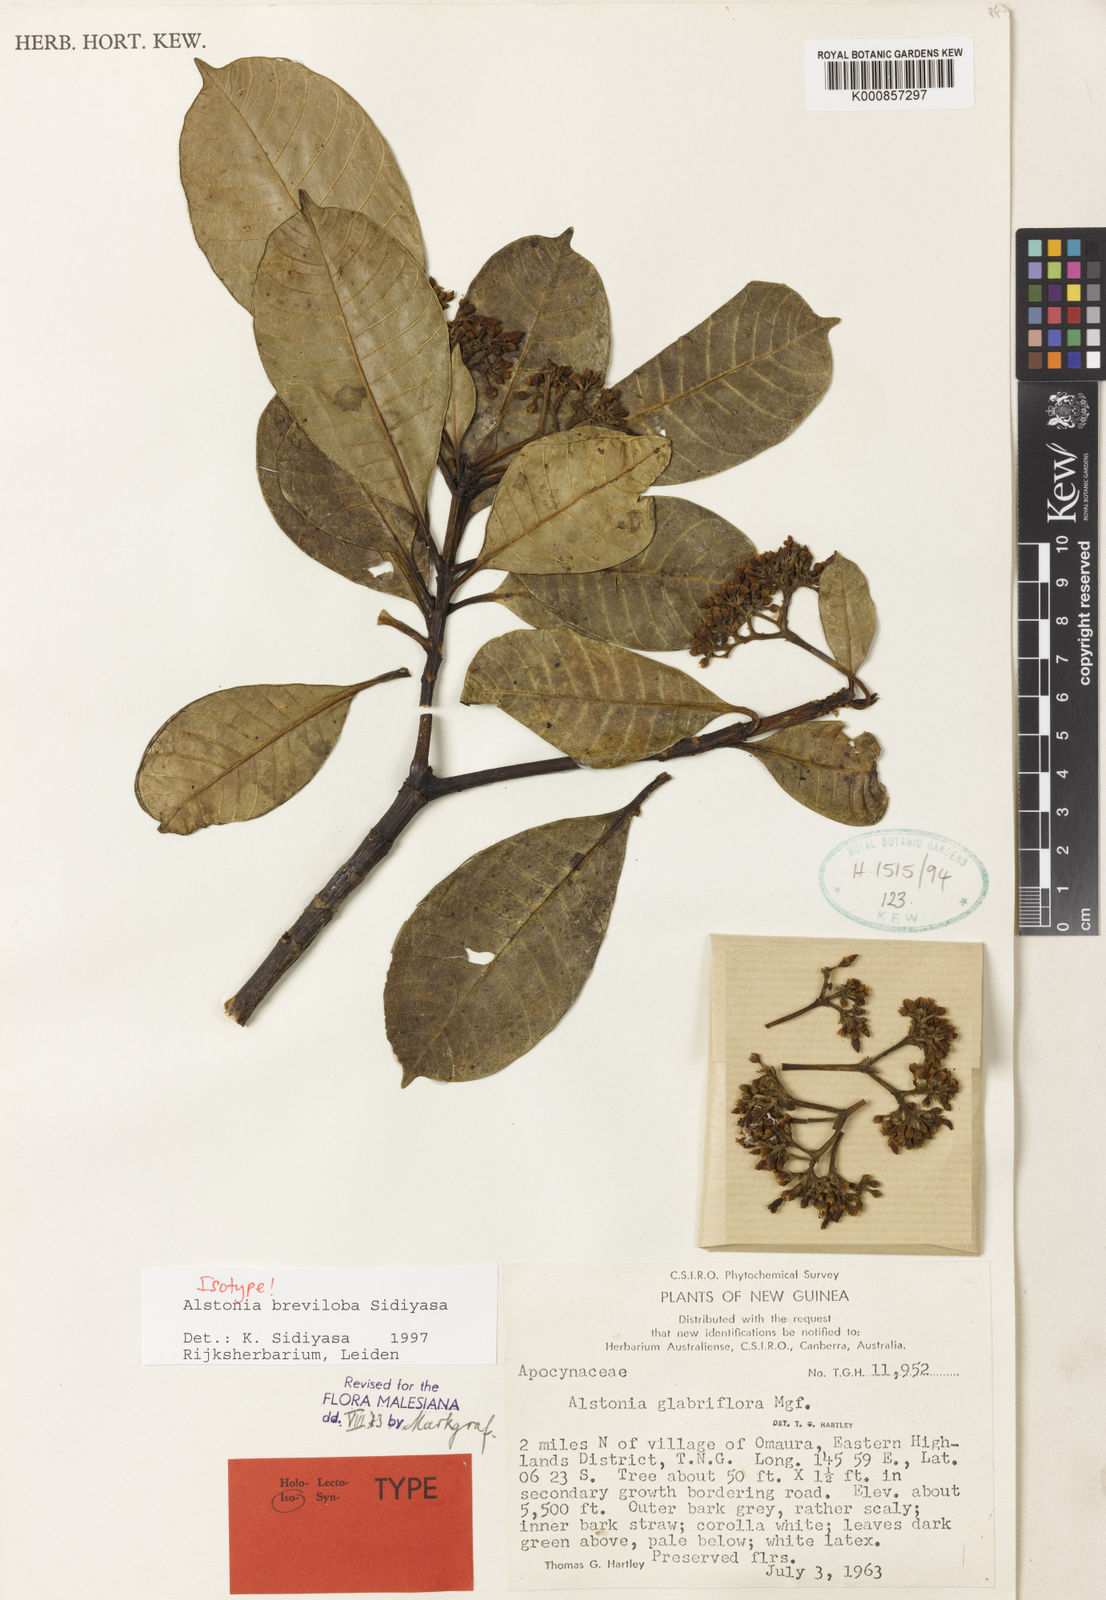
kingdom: Plantae
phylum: Tracheophyta
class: Magnoliopsida
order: Gentianales
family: Apocynaceae
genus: Alstonia
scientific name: Alstonia breviloba
